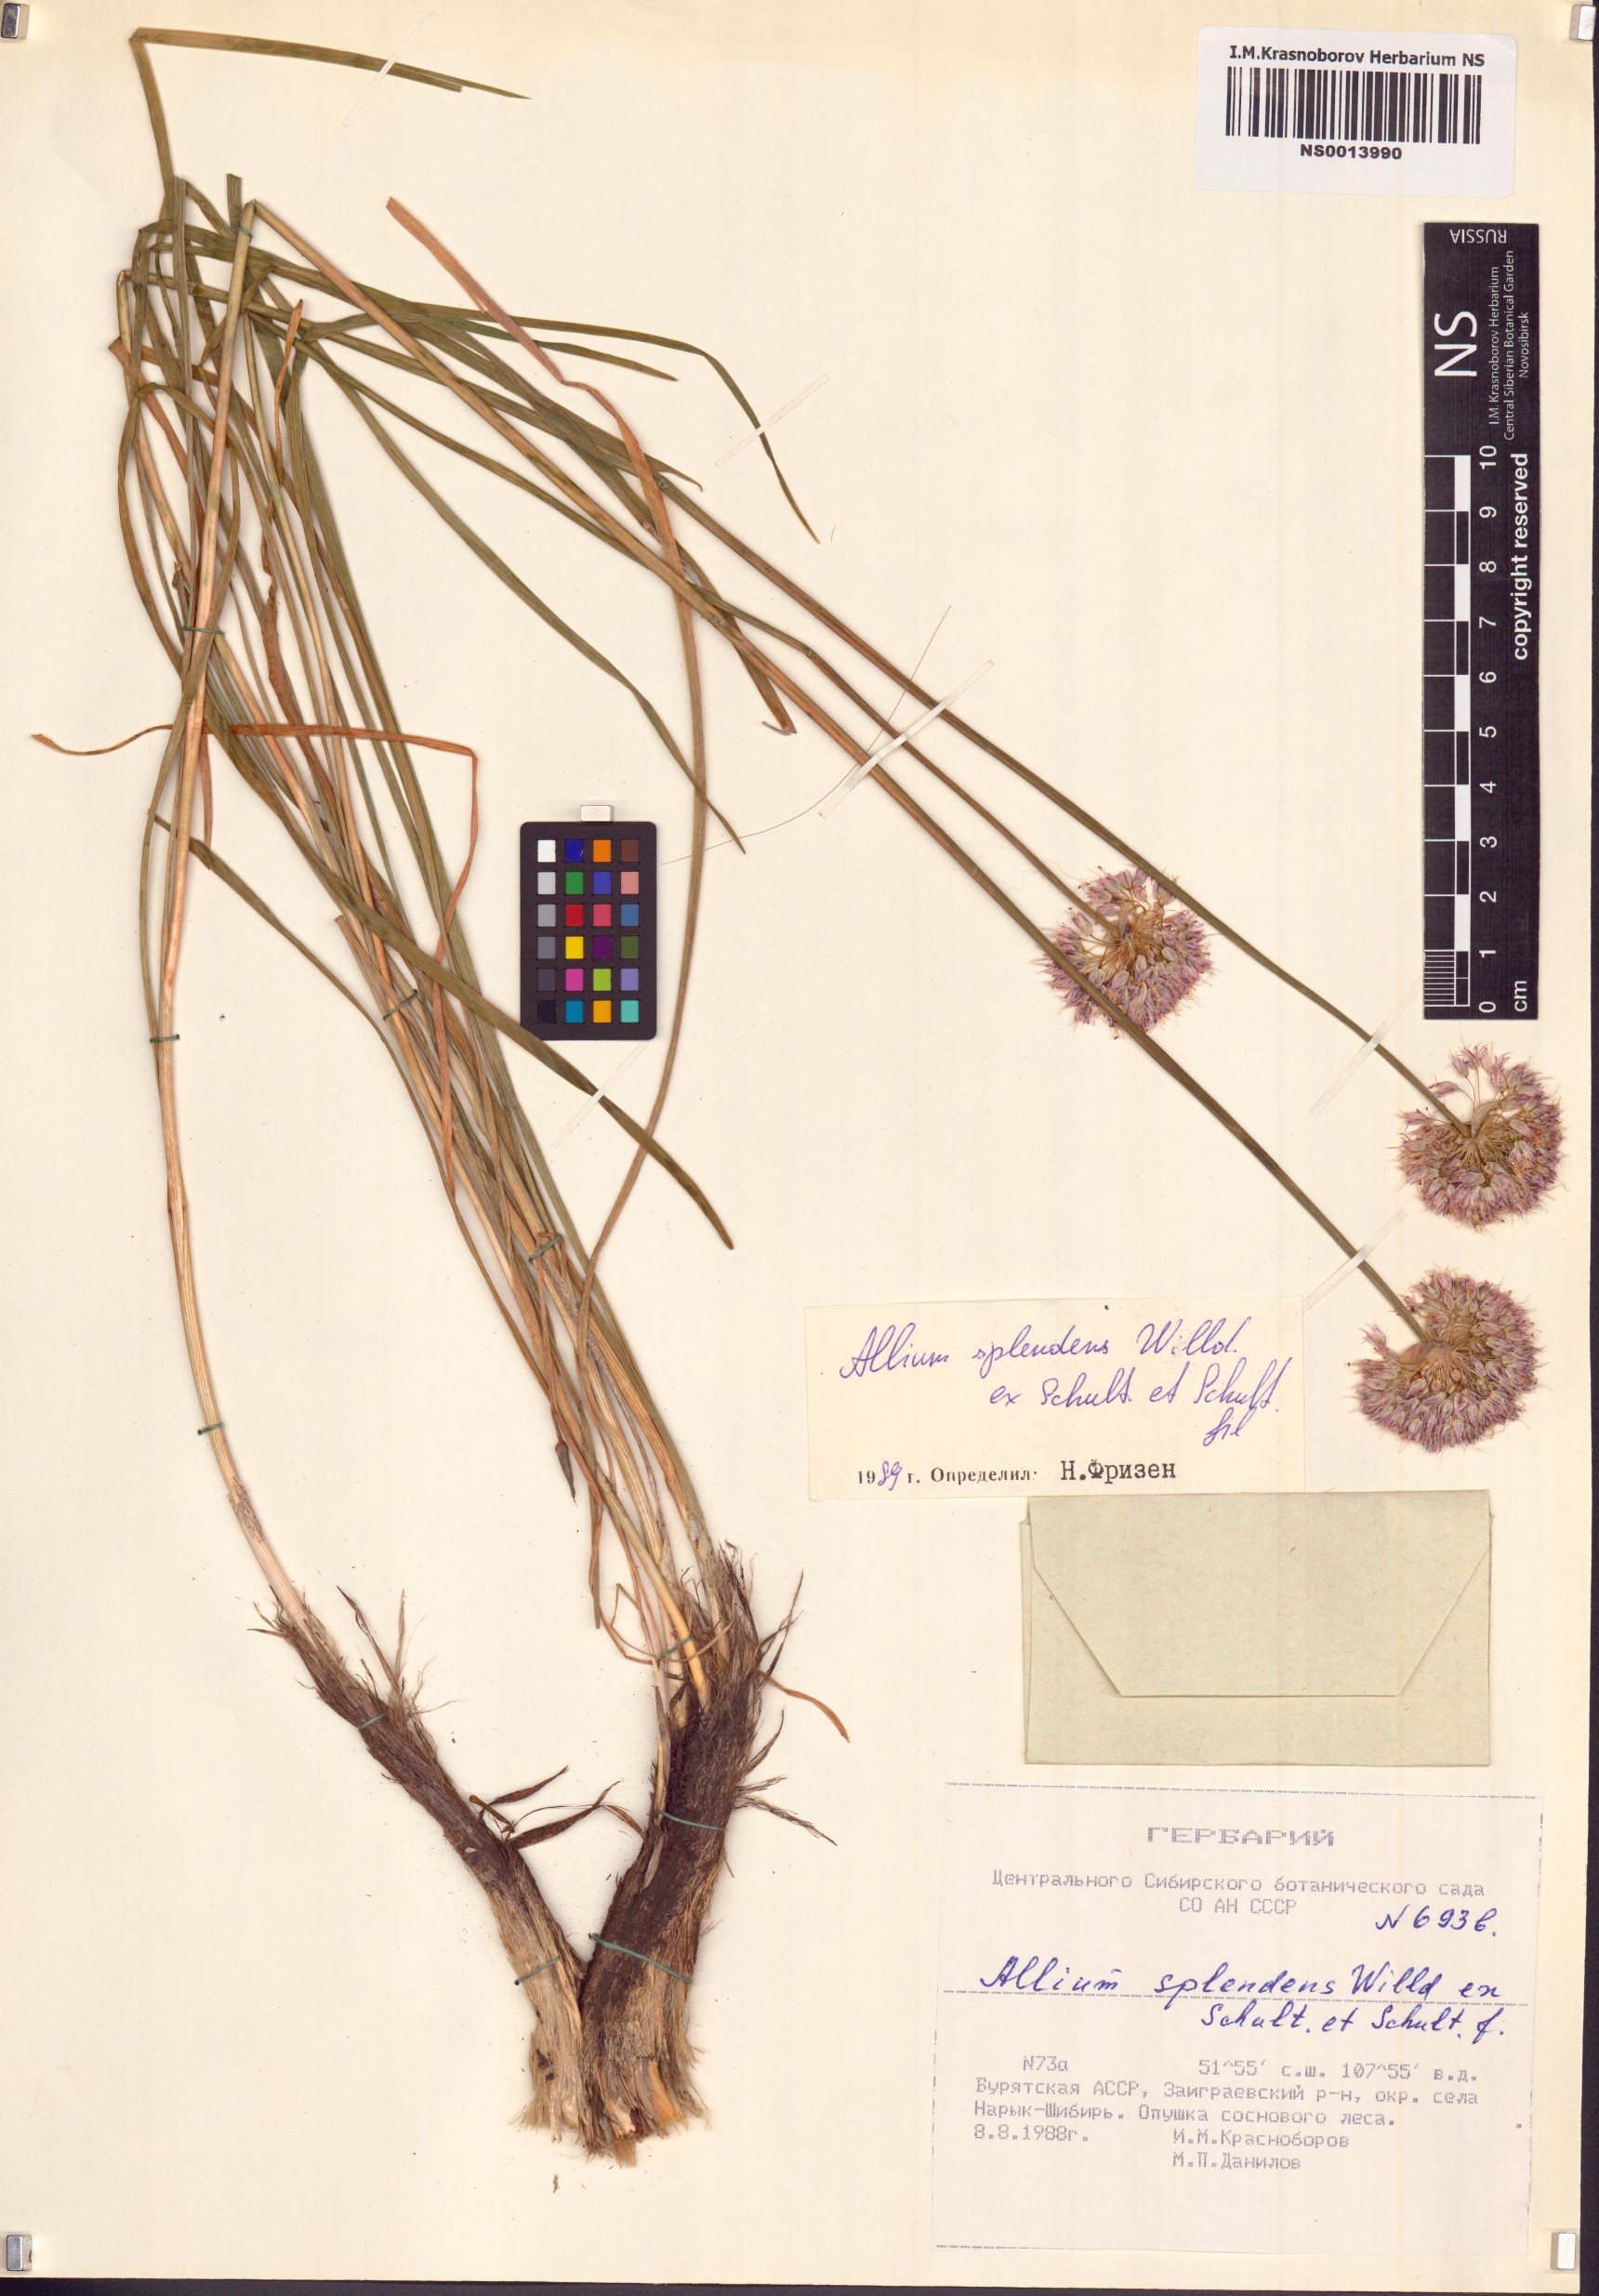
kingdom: Plantae
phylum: Tracheophyta
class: Liliopsida
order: Asparagales
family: Amaryllidaceae
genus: Allium
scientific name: Allium splendens
